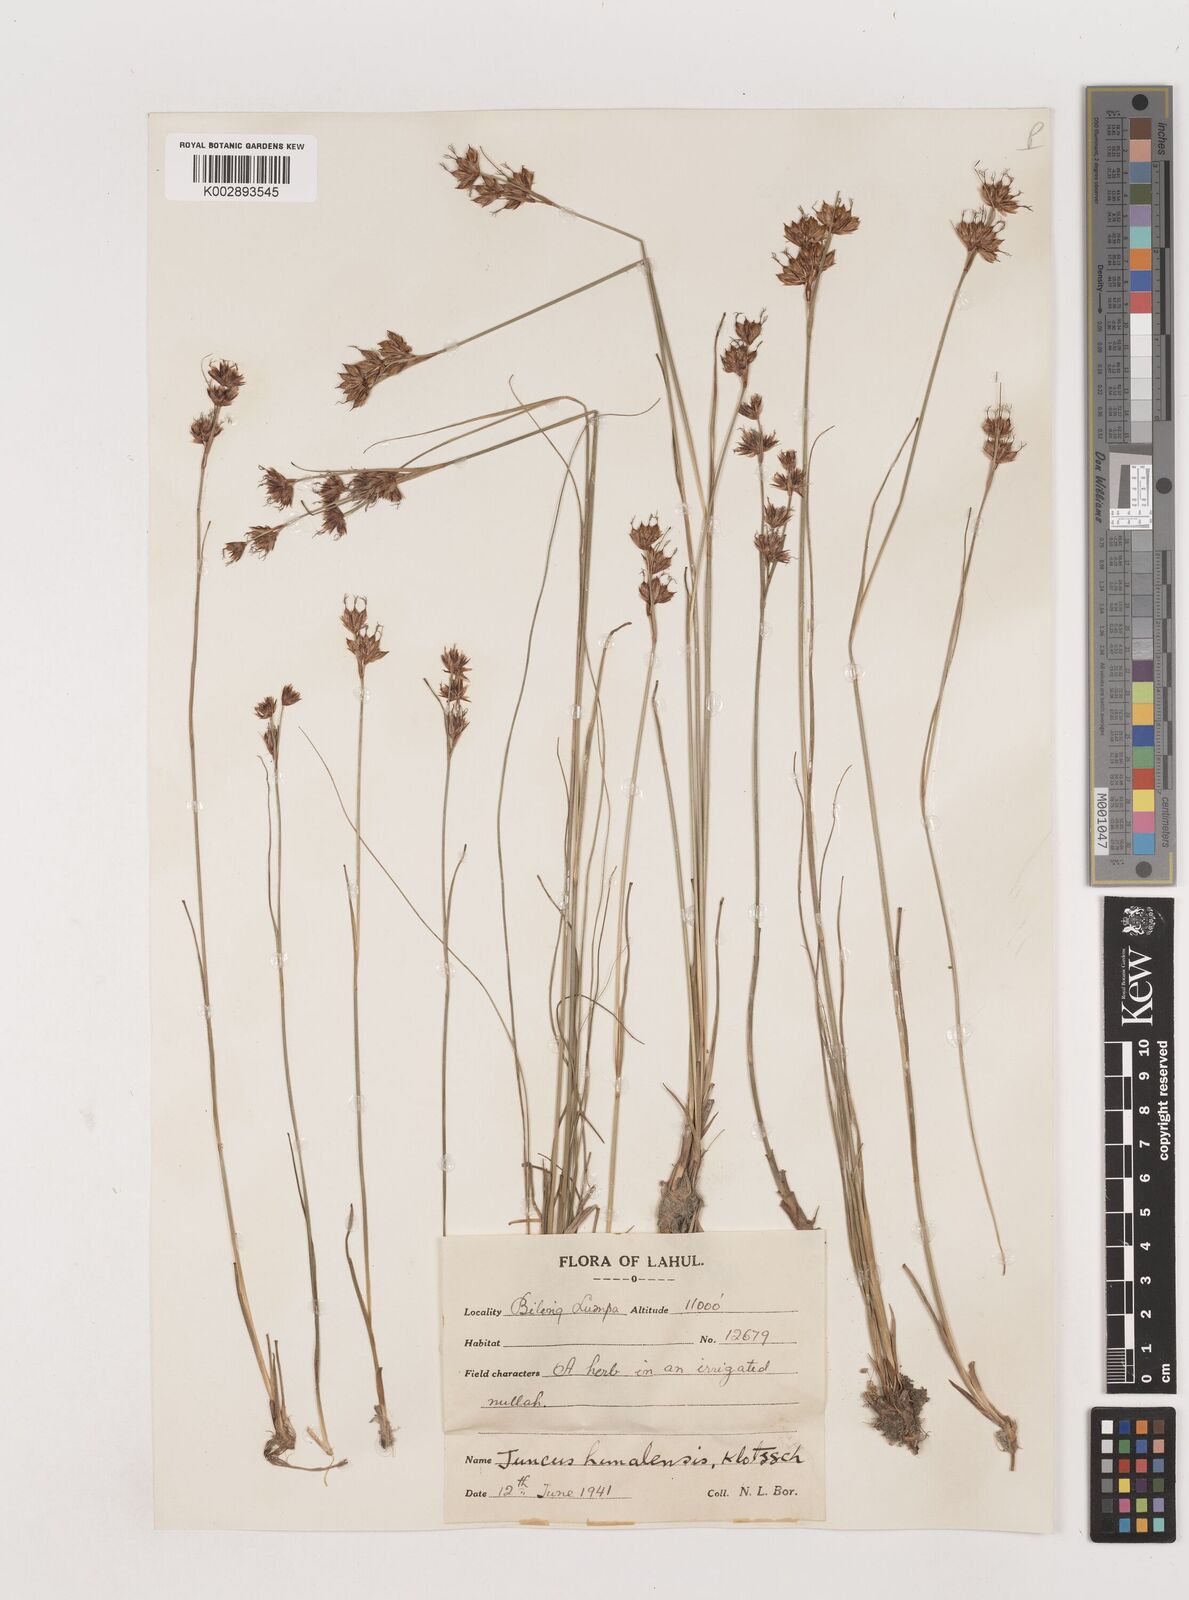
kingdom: Plantae
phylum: Tracheophyta
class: Liliopsida
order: Poales
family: Juncaceae
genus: Juncus
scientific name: Juncus himalensis
